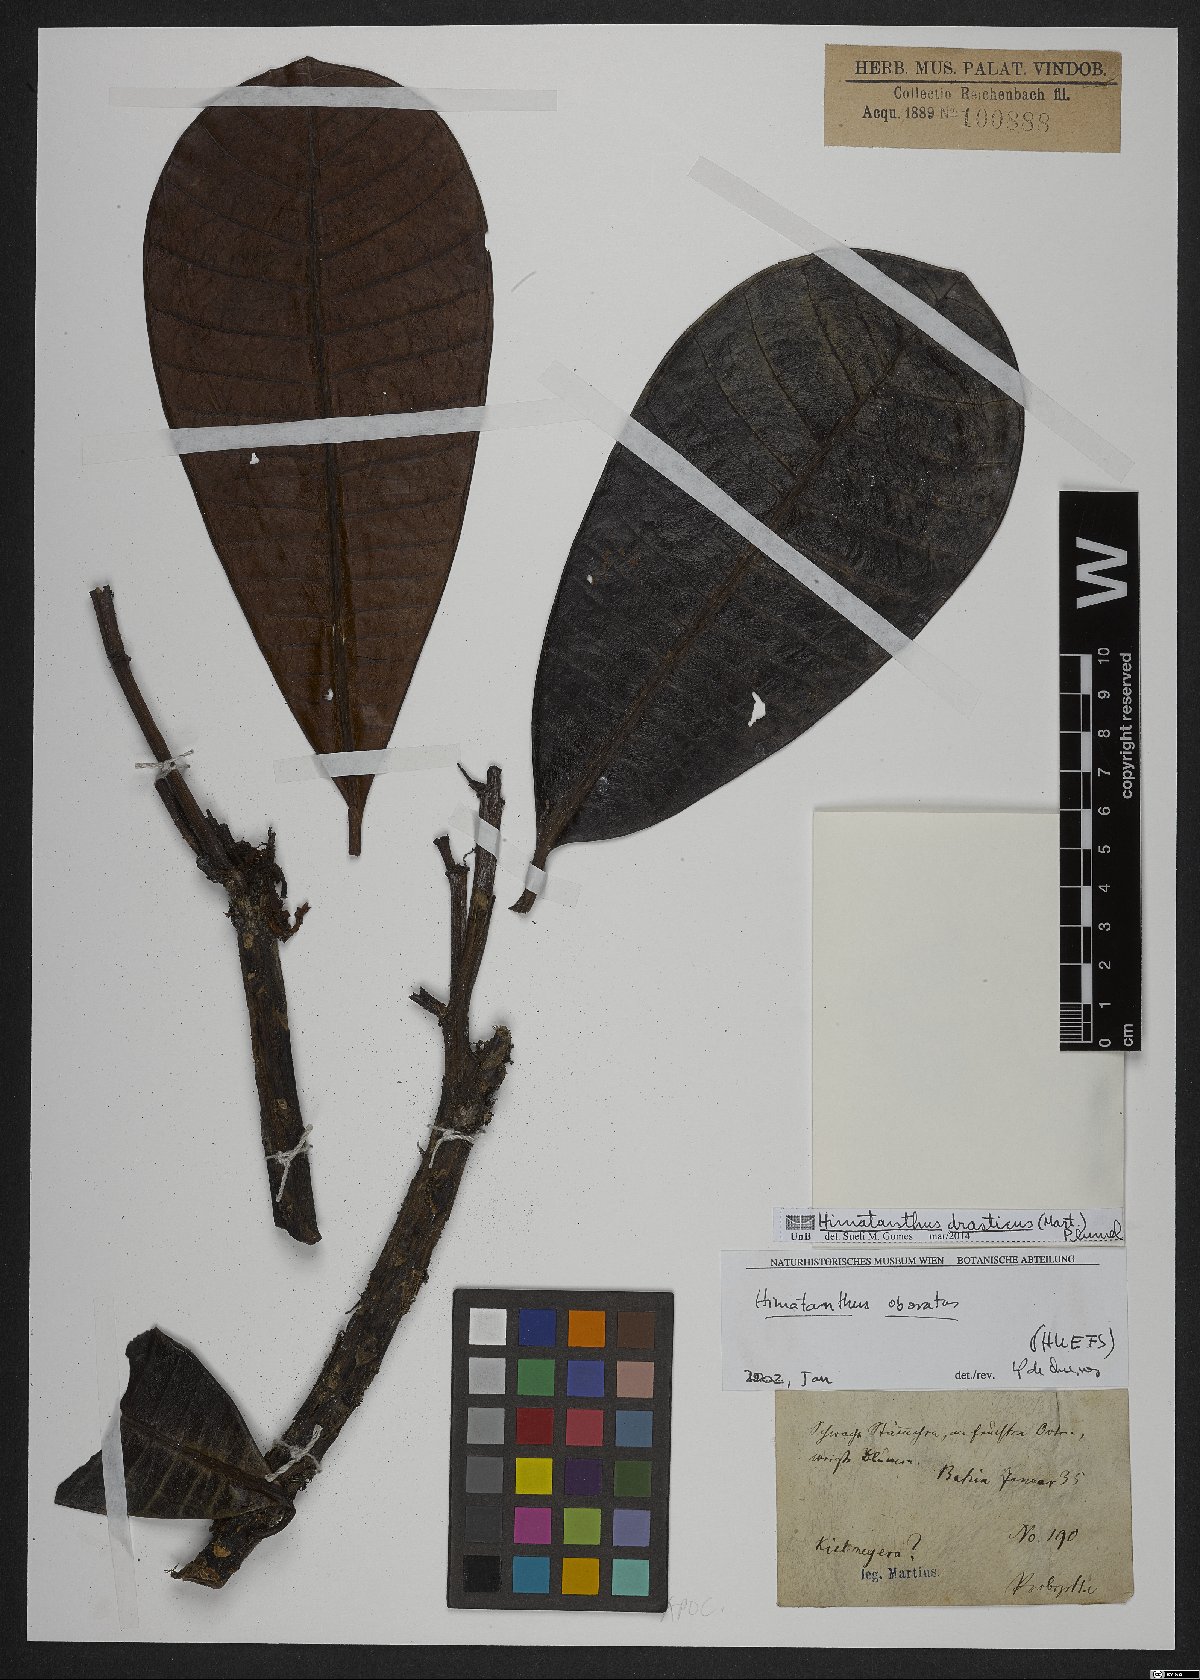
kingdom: Plantae
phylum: Tracheophyta
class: Magnoliopsida
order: Gentianales
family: Apocynaceae
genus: Himatanthus
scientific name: Himatanthus drasticus
